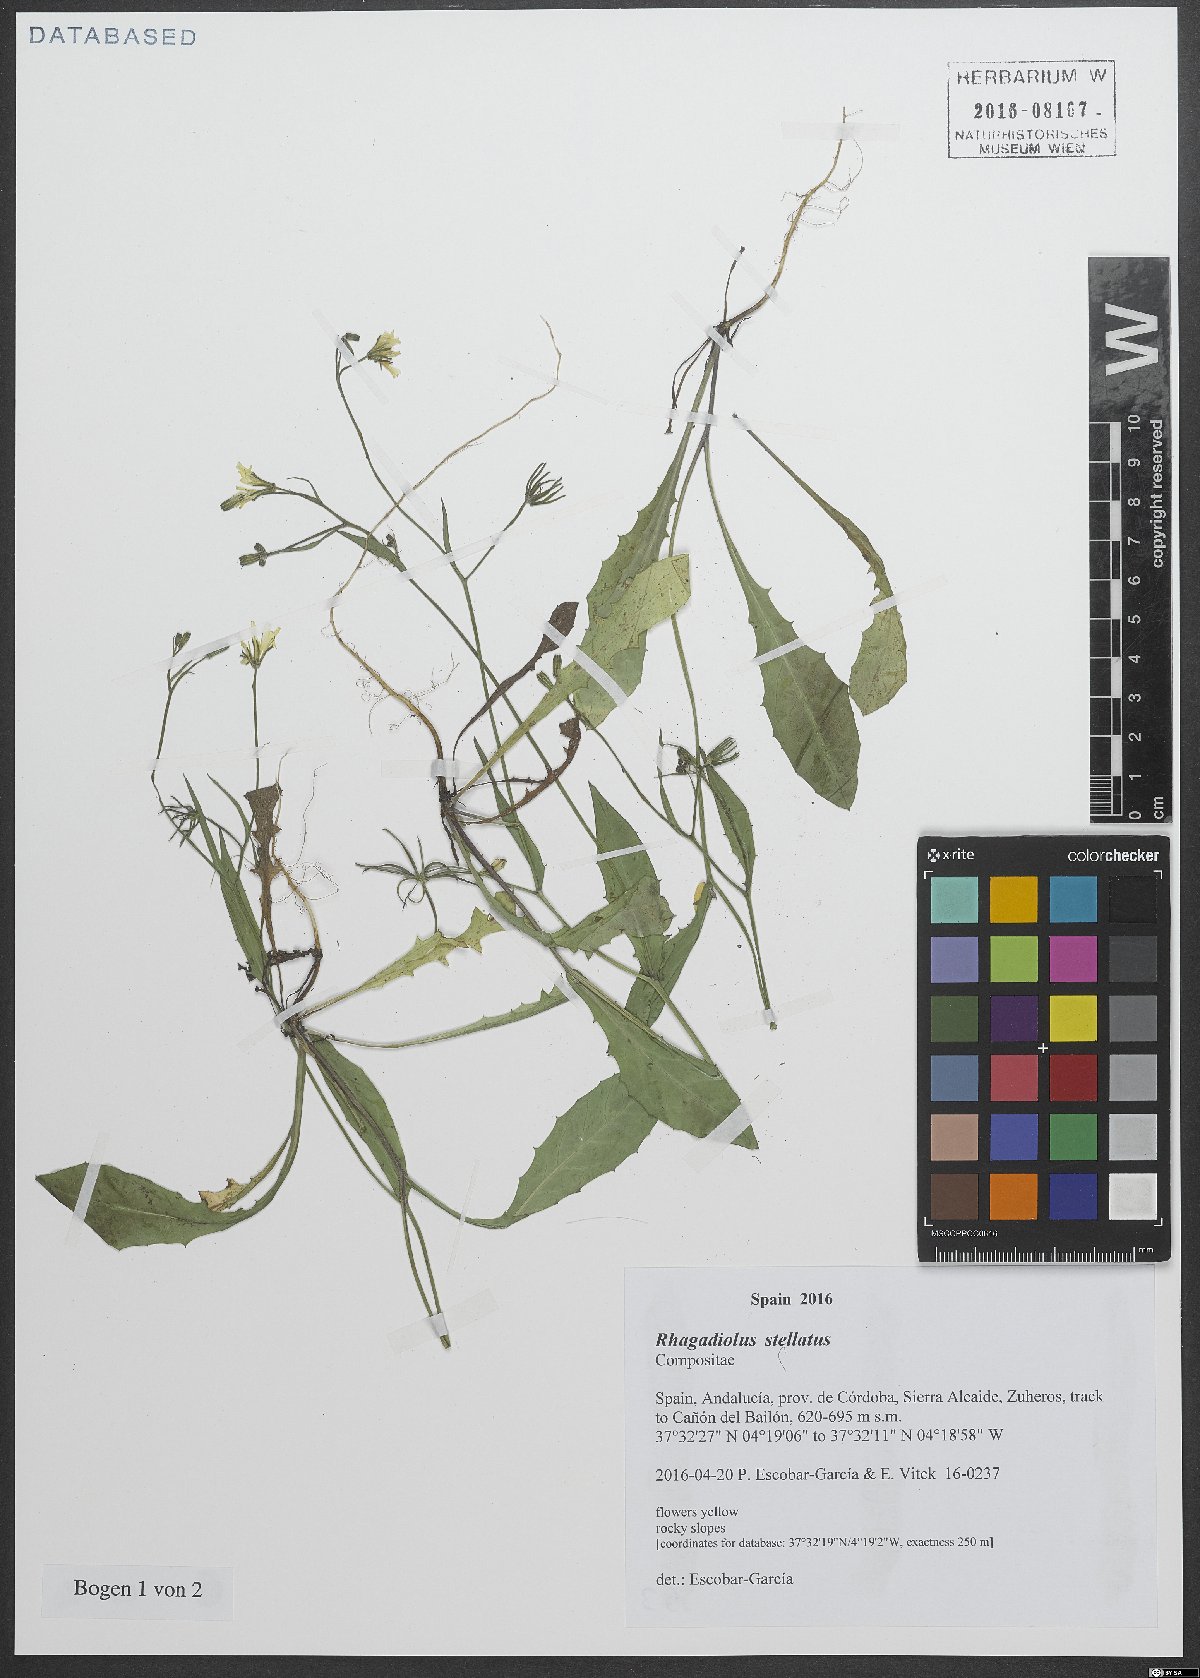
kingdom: Plantae
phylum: Tracheophyta
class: Magnoliopsida
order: Asterales
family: Asteraceae
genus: Rhagadiolus
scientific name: Rhagadiolus stellatus
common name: Star hawkbit
